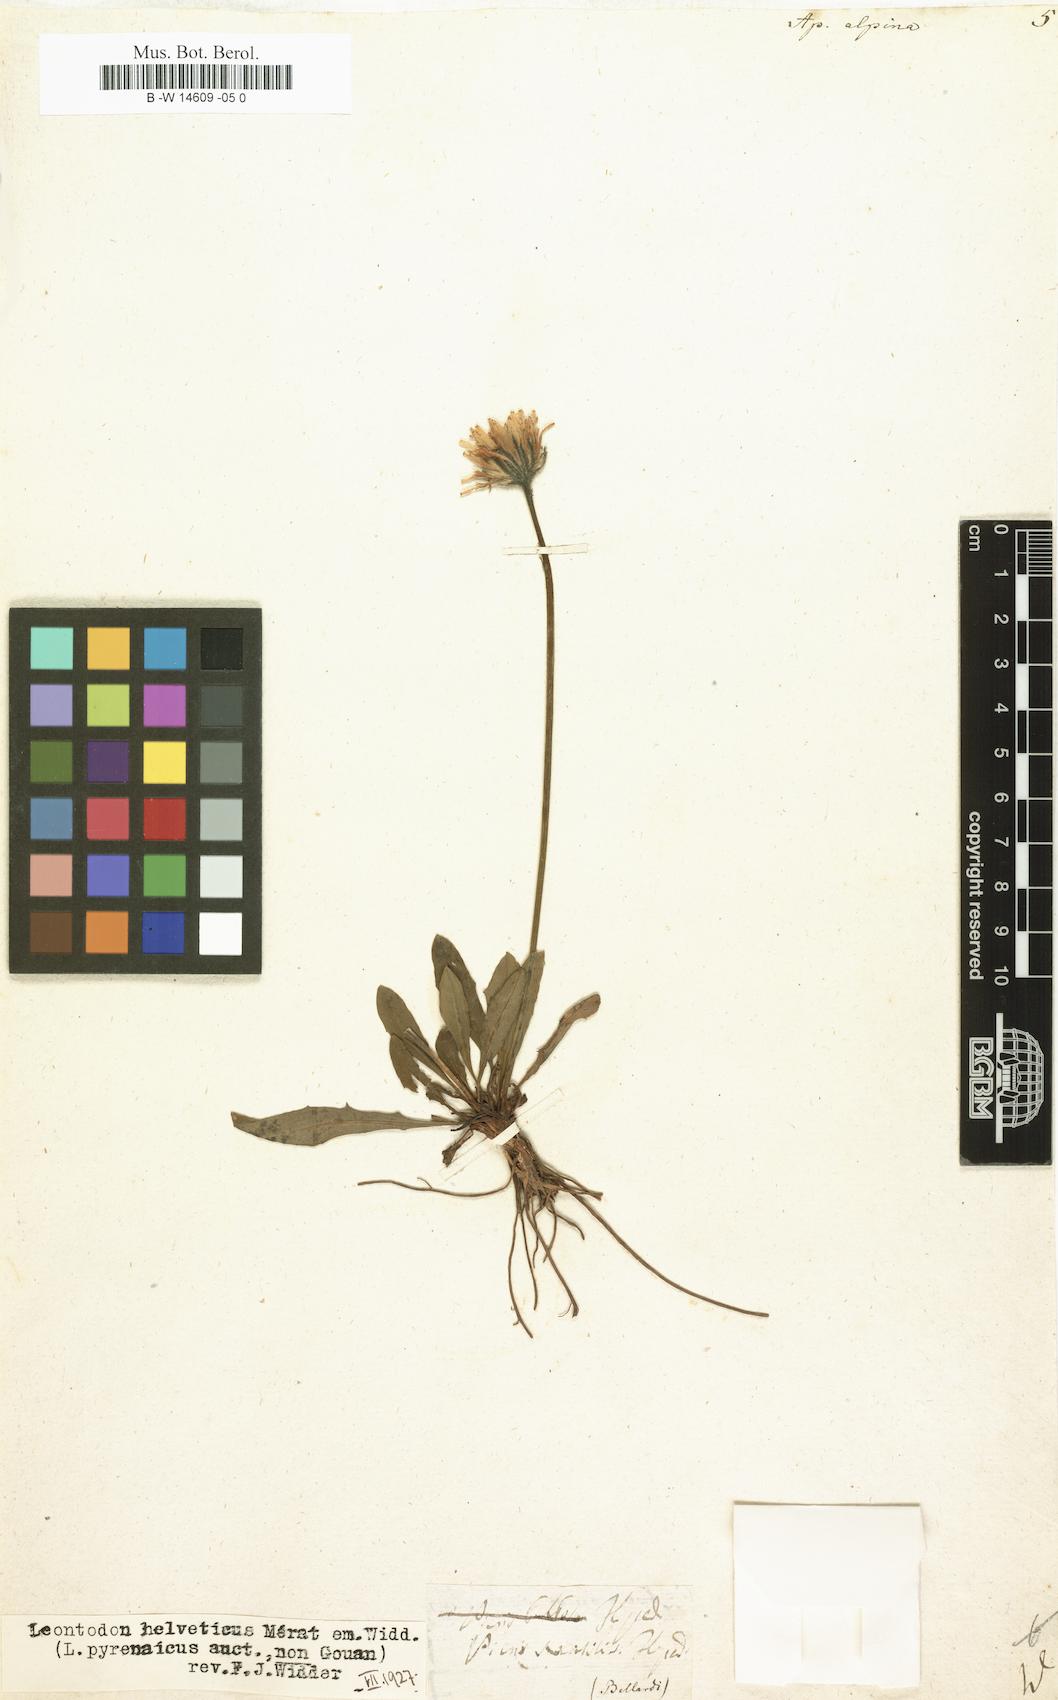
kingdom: Plantae
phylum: Tracheophyta
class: Magnoliopsida
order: Asterales
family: Asteraceae
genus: Scorzoneroides
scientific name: Scorzoneroides pyrenaica
